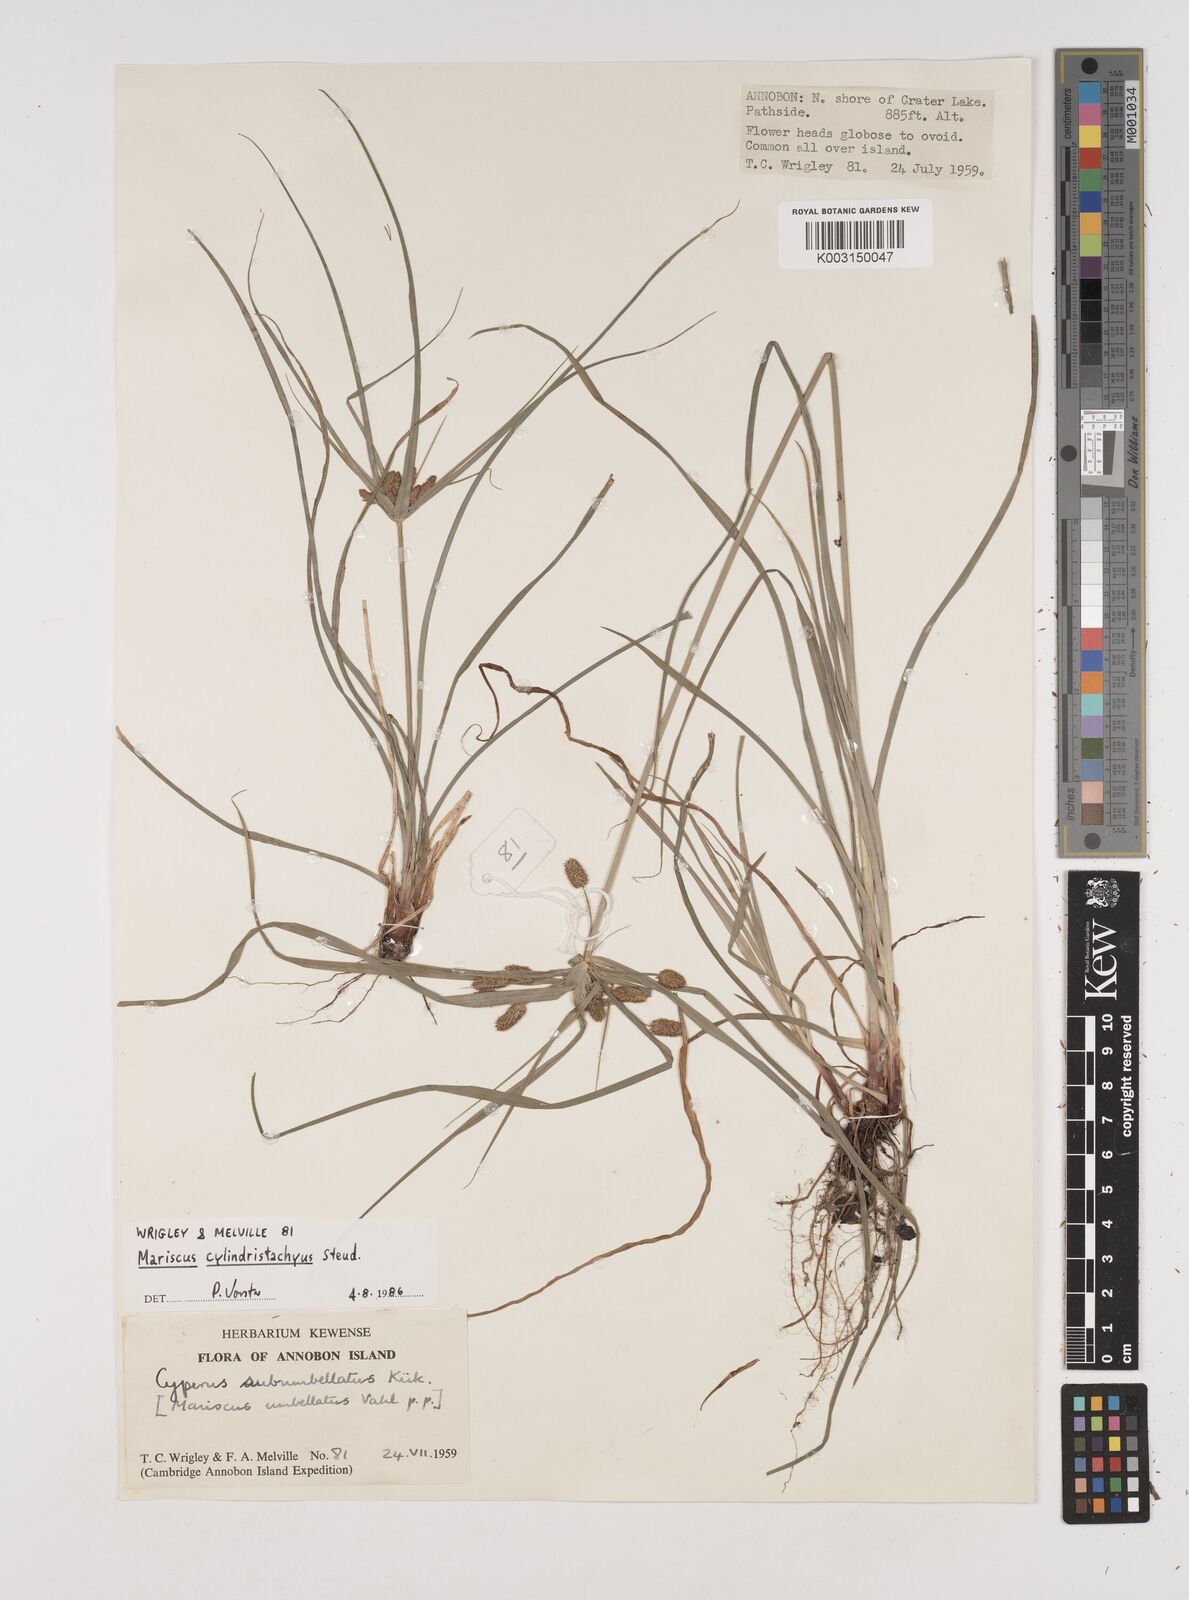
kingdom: Plantae
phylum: Tracheophyta
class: Liliopsida
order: Poales
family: Cyperaceae
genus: Cyperus
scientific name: Cyperus cyperoides
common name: Pacific island flat sedge
